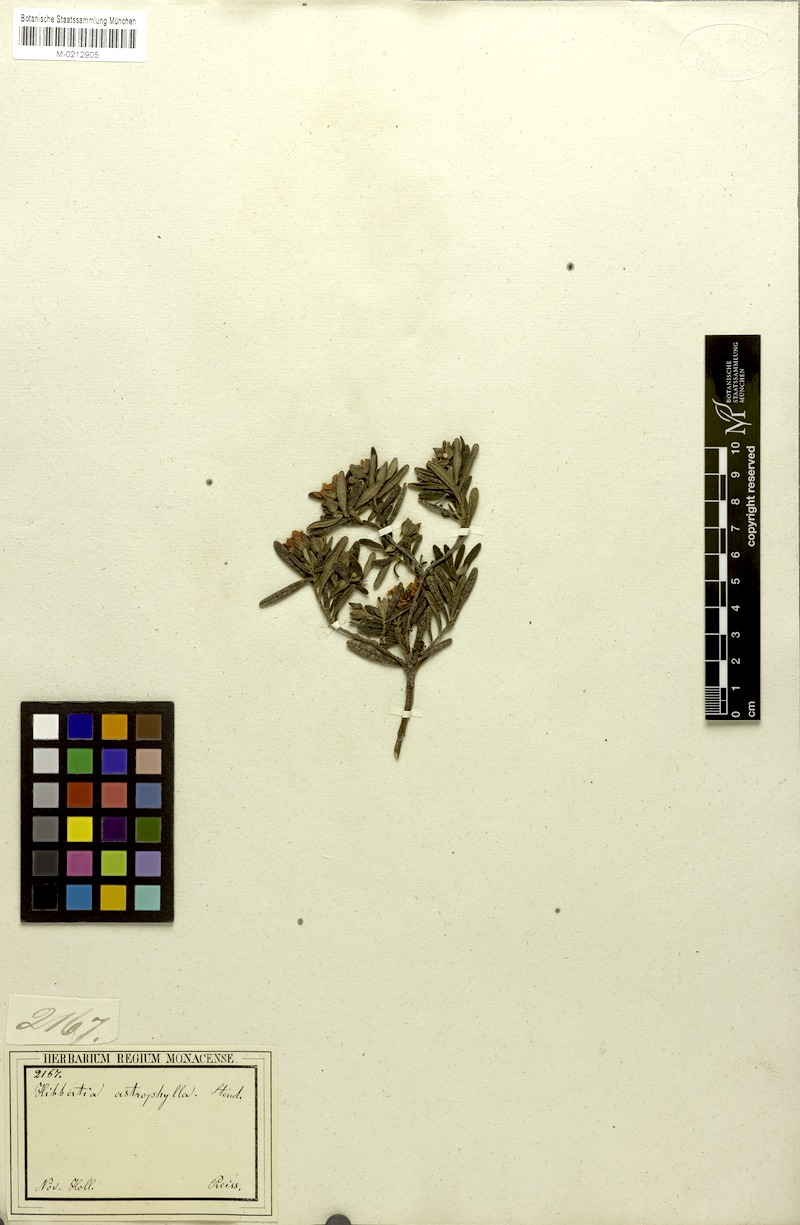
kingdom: Plantae
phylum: Tracheophyta
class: Magnoliopsida
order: Dilleniales
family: Dilleniaceae
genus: Hibbertia
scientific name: Hibbertia furfuracea
